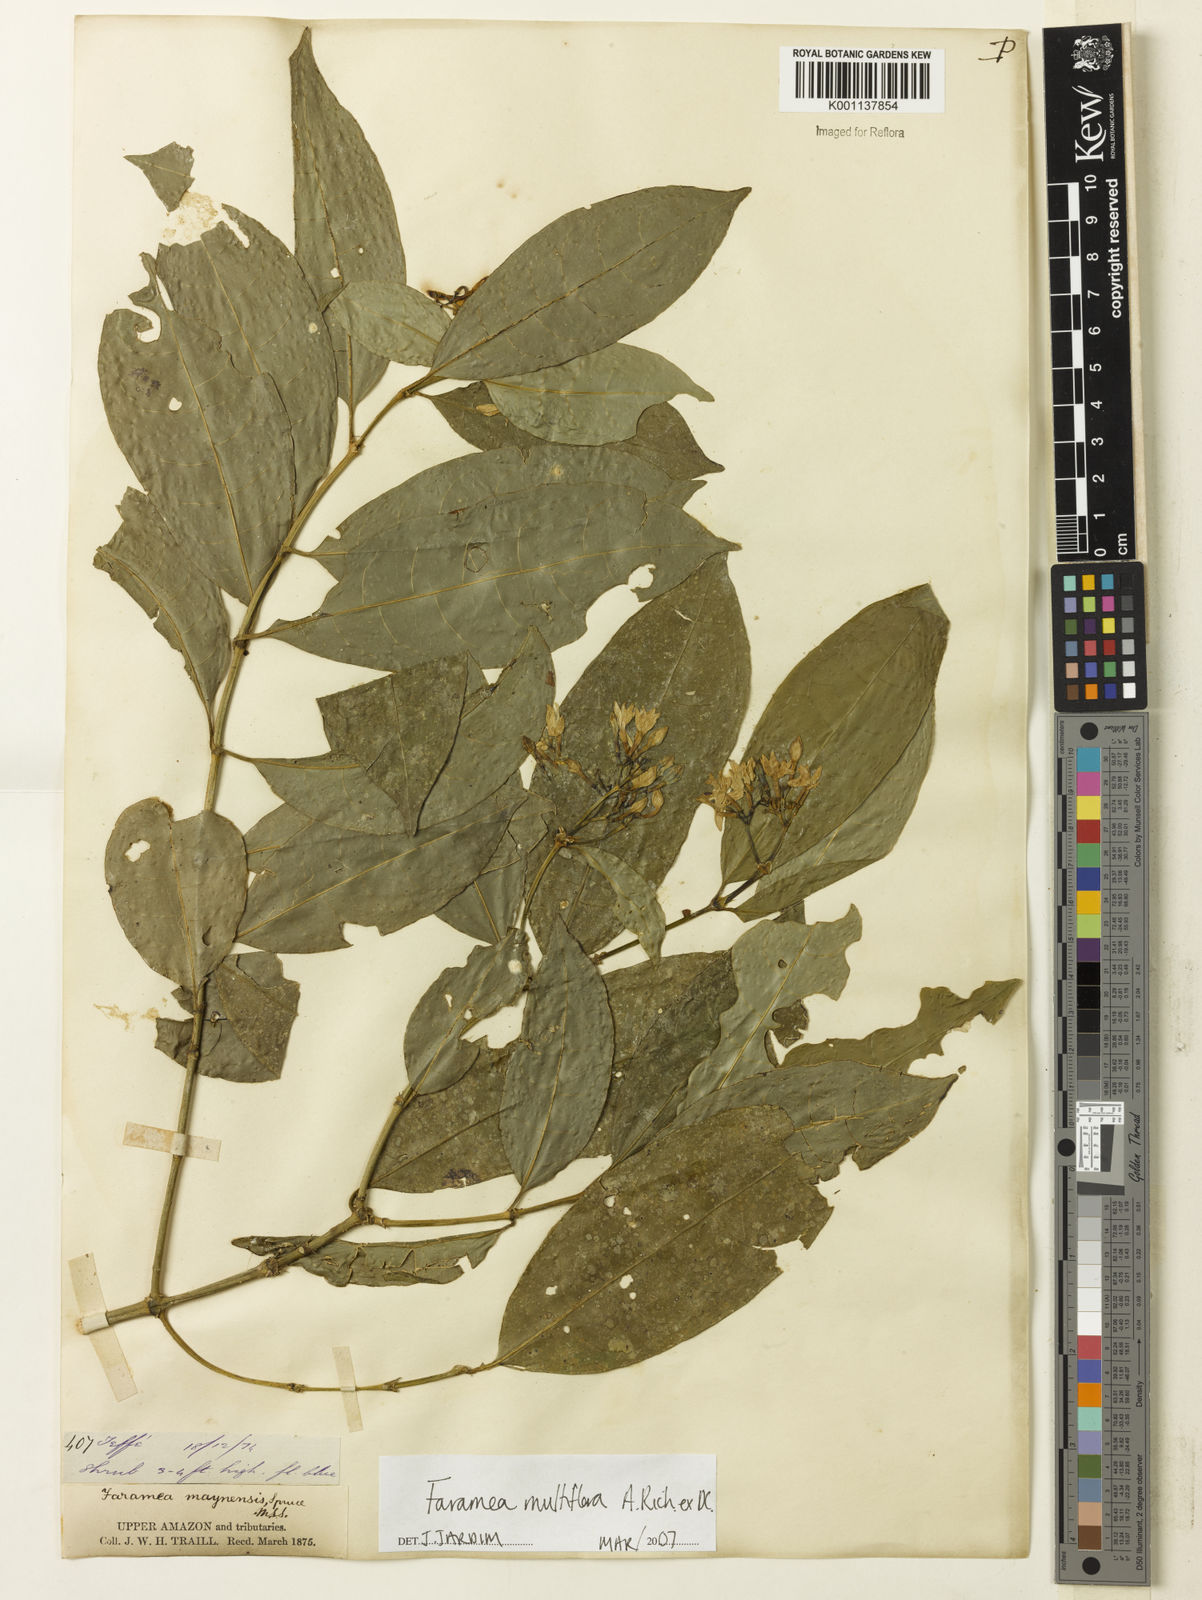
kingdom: Plantae
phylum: Tracheophyta
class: Magnoliopsida
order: Gentianales
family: Rubiaceae
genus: Faramea
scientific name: Faramea multiflora
